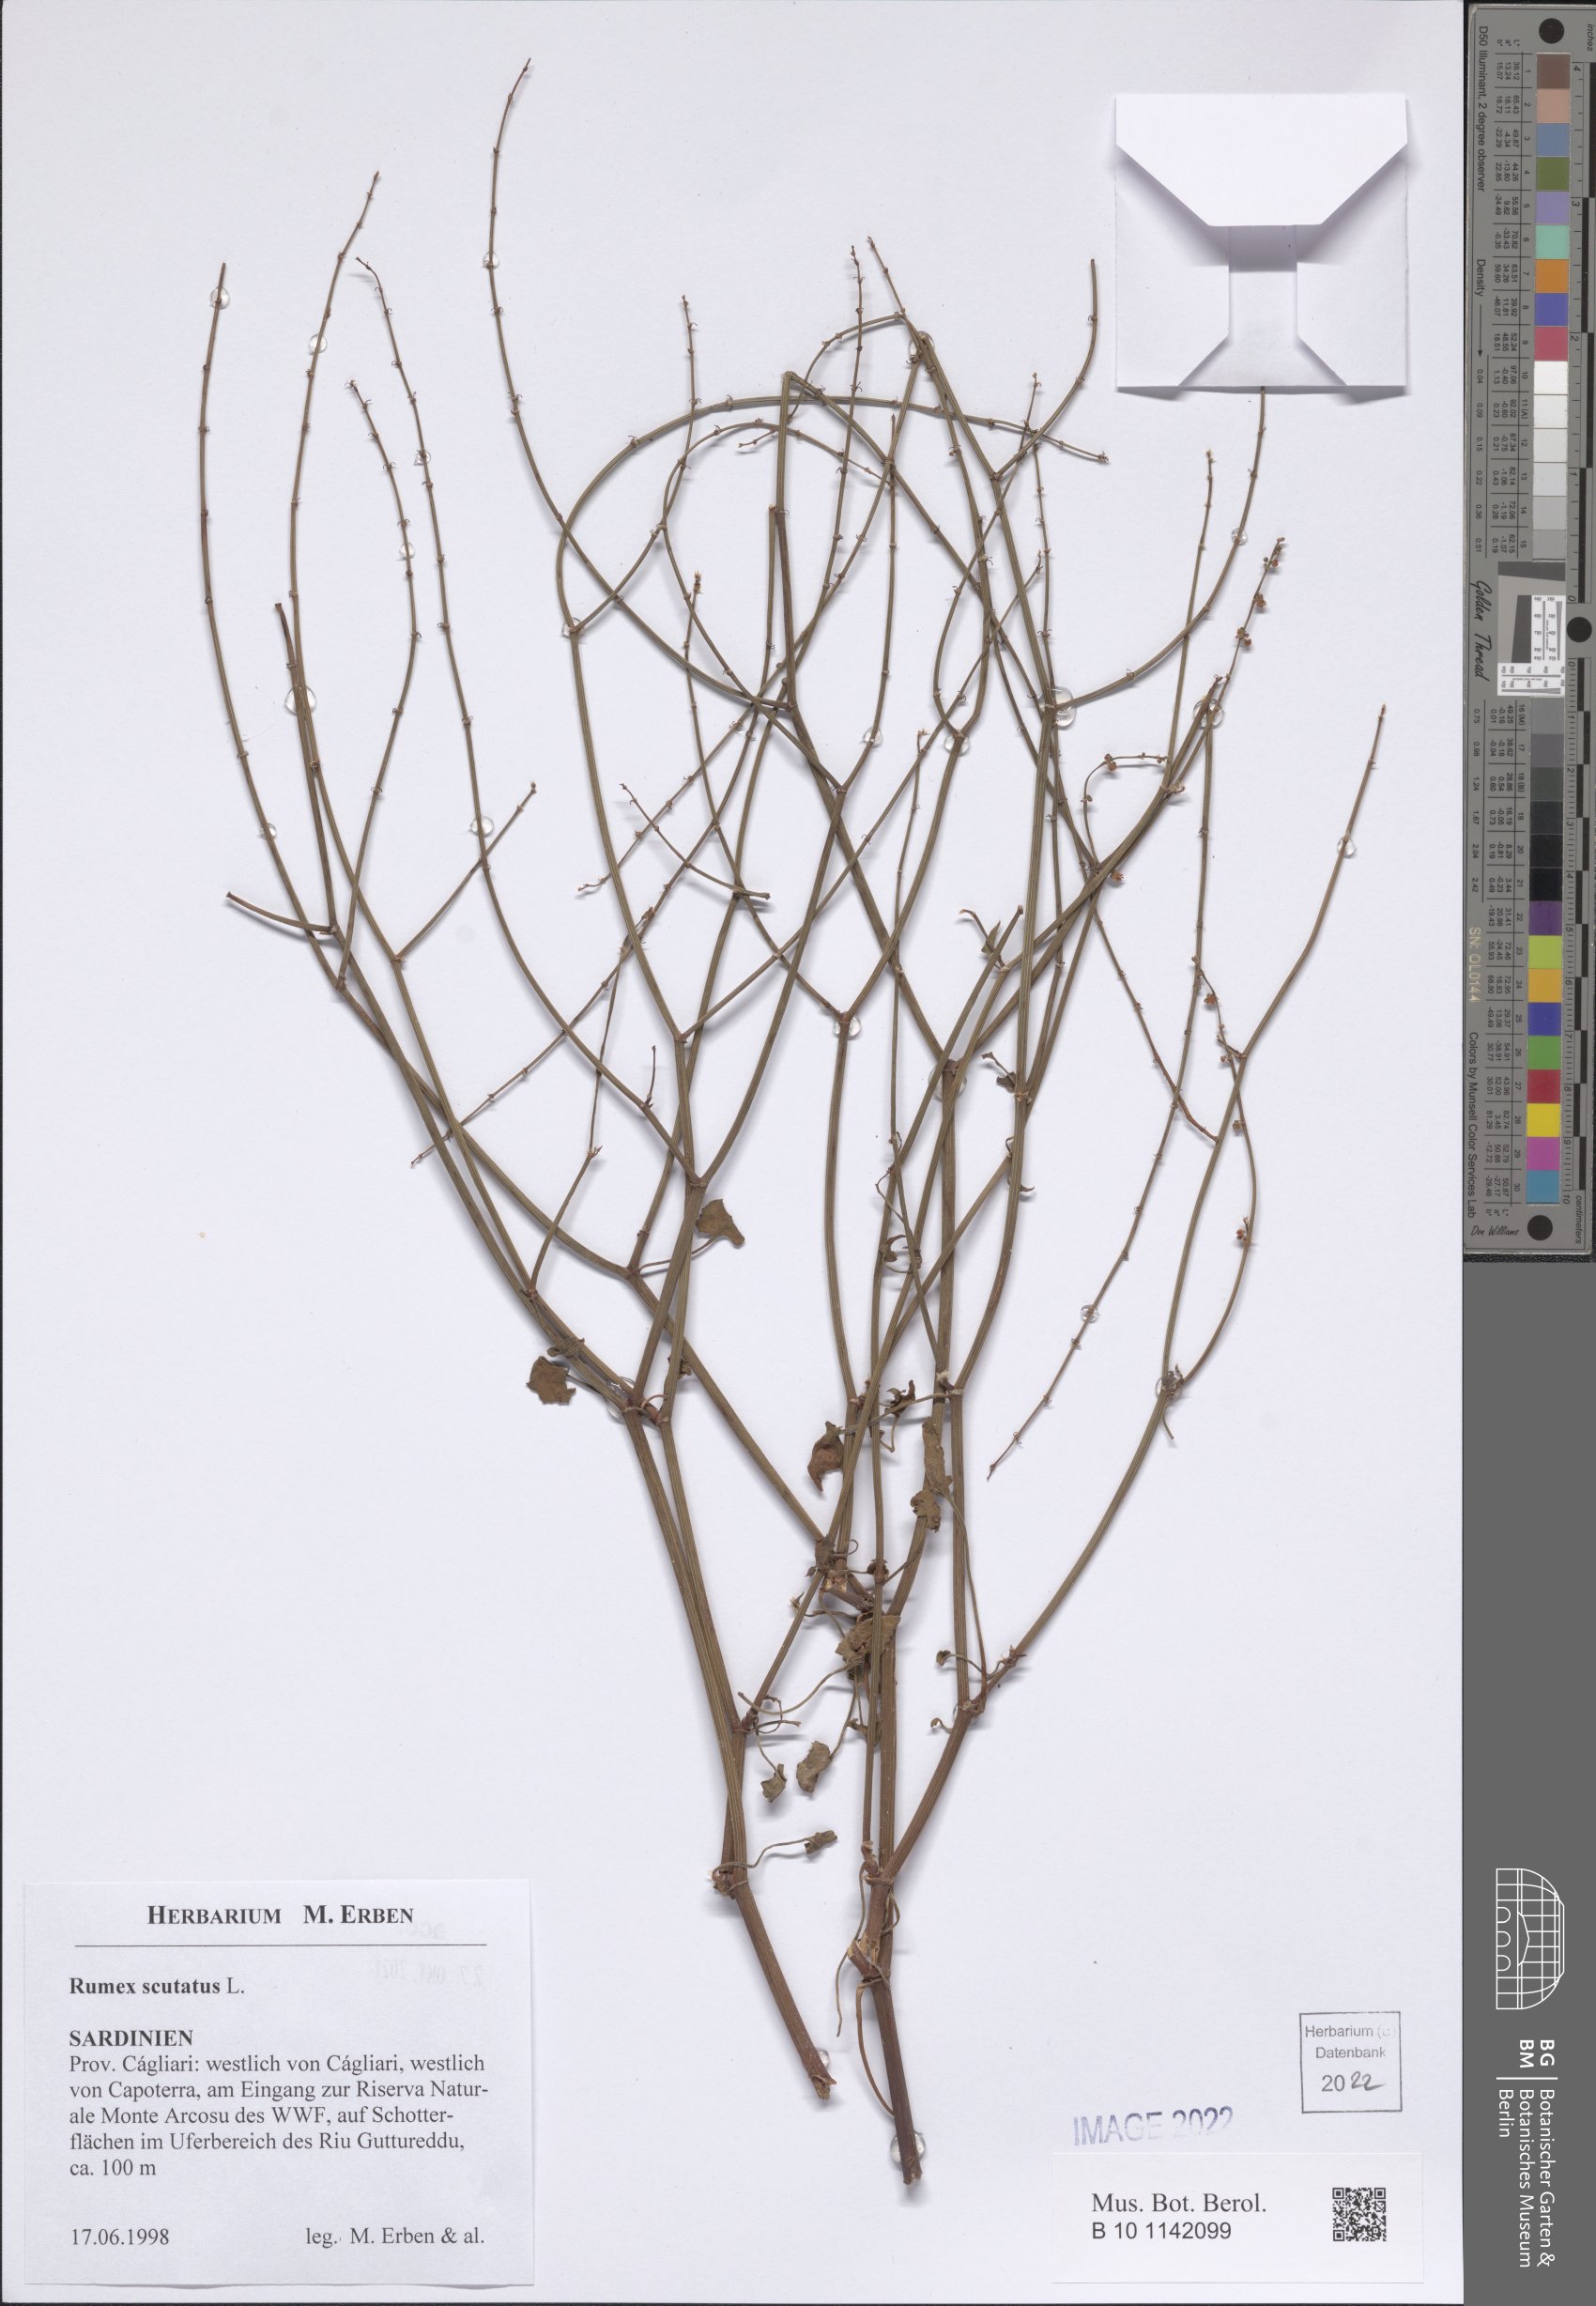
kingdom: Plantae
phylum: Tracheophyta
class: Magnoliopsida
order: Caryophyllales
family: Polygonaceae
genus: Rumex
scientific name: Rumex scutatus
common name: French sorrel
